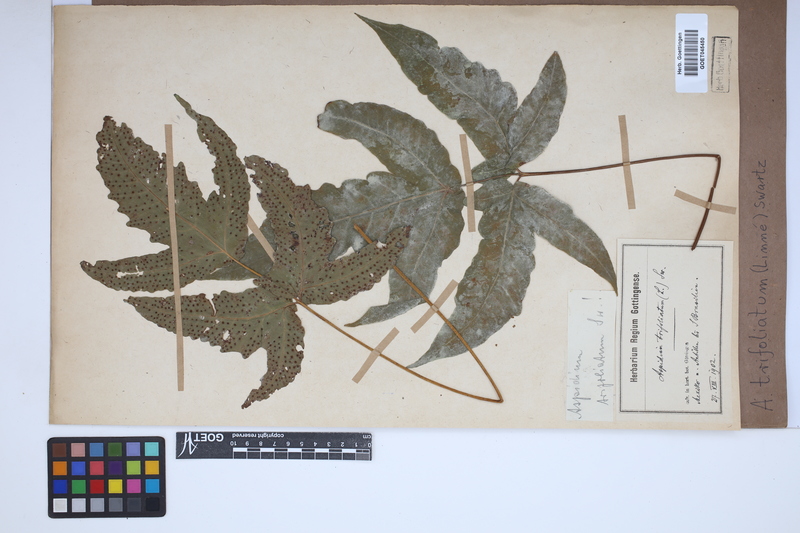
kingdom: Plantae
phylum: Tracheophyta
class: Polypodiopsida
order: Polypodiales
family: Tectariaceae
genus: Tectaria
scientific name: Tectaria trifoliata
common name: Threeleaf halberd fern
